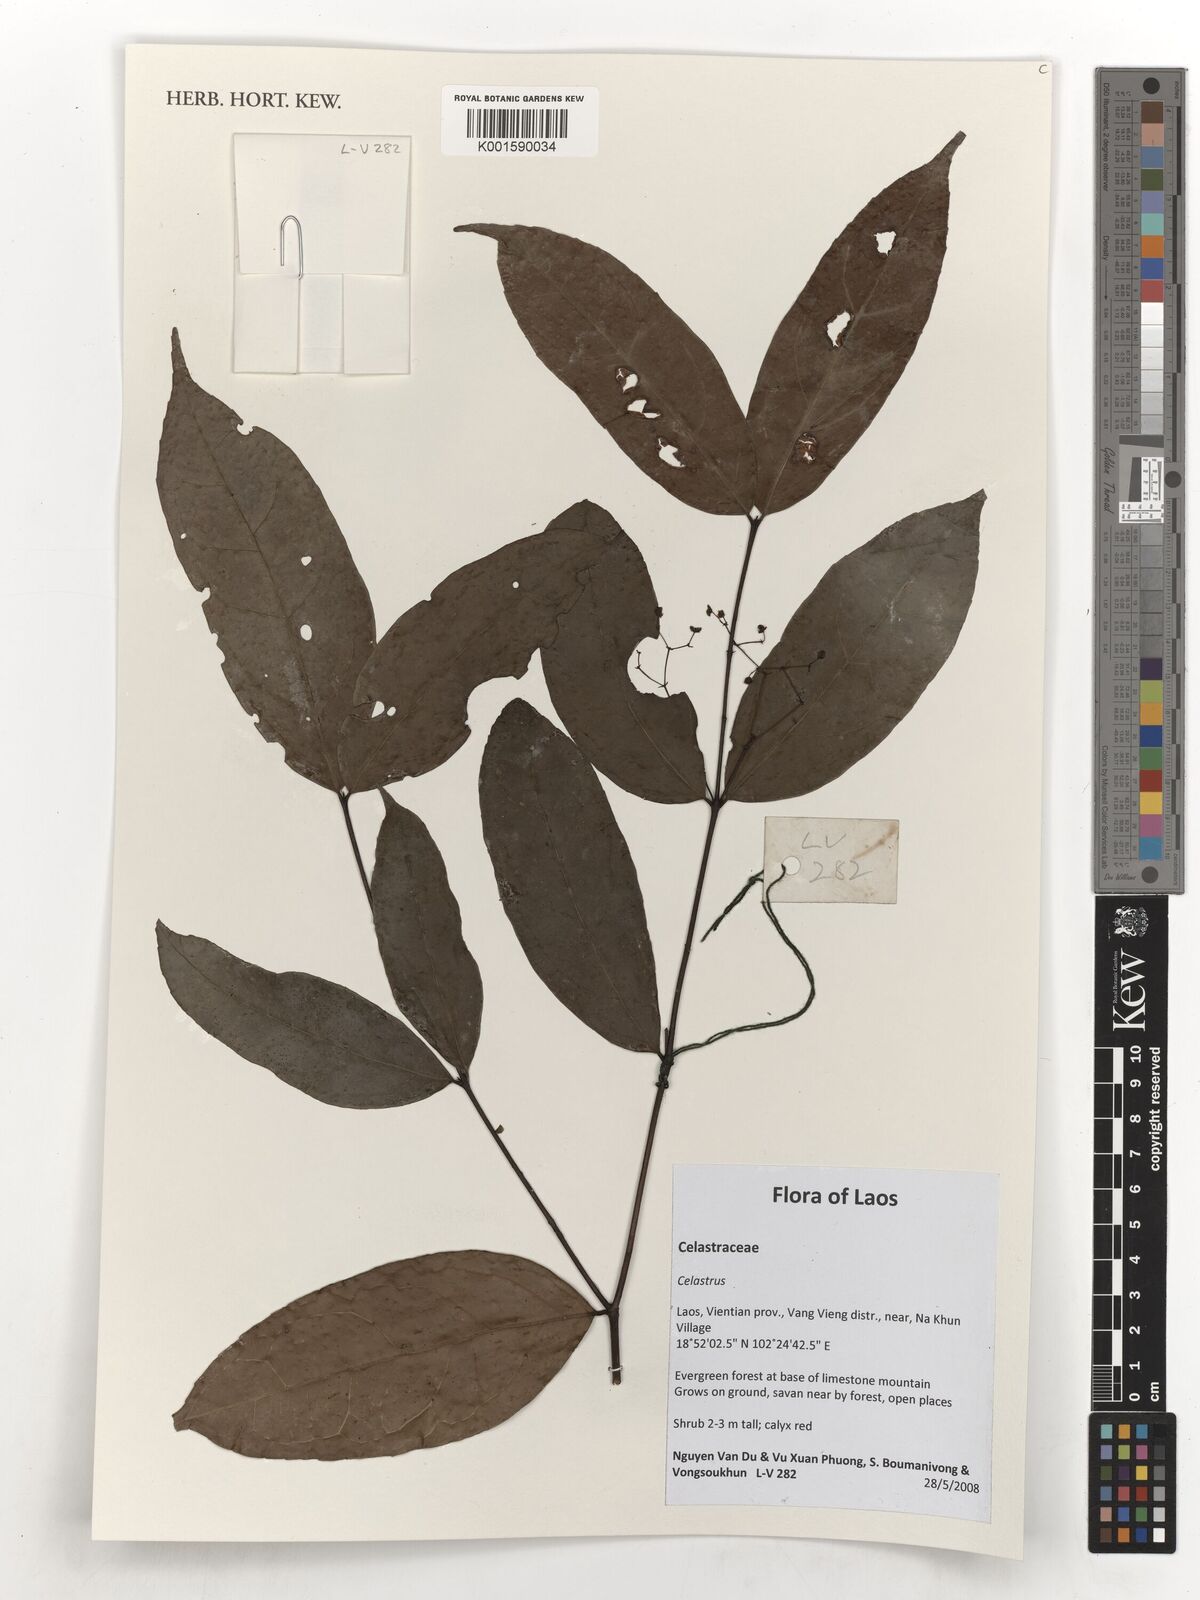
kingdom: Plantae
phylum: Tracheophyta
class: Magnoliopsida
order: Celastrales
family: Celastraceae
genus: Celastrus
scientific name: Celastrus
